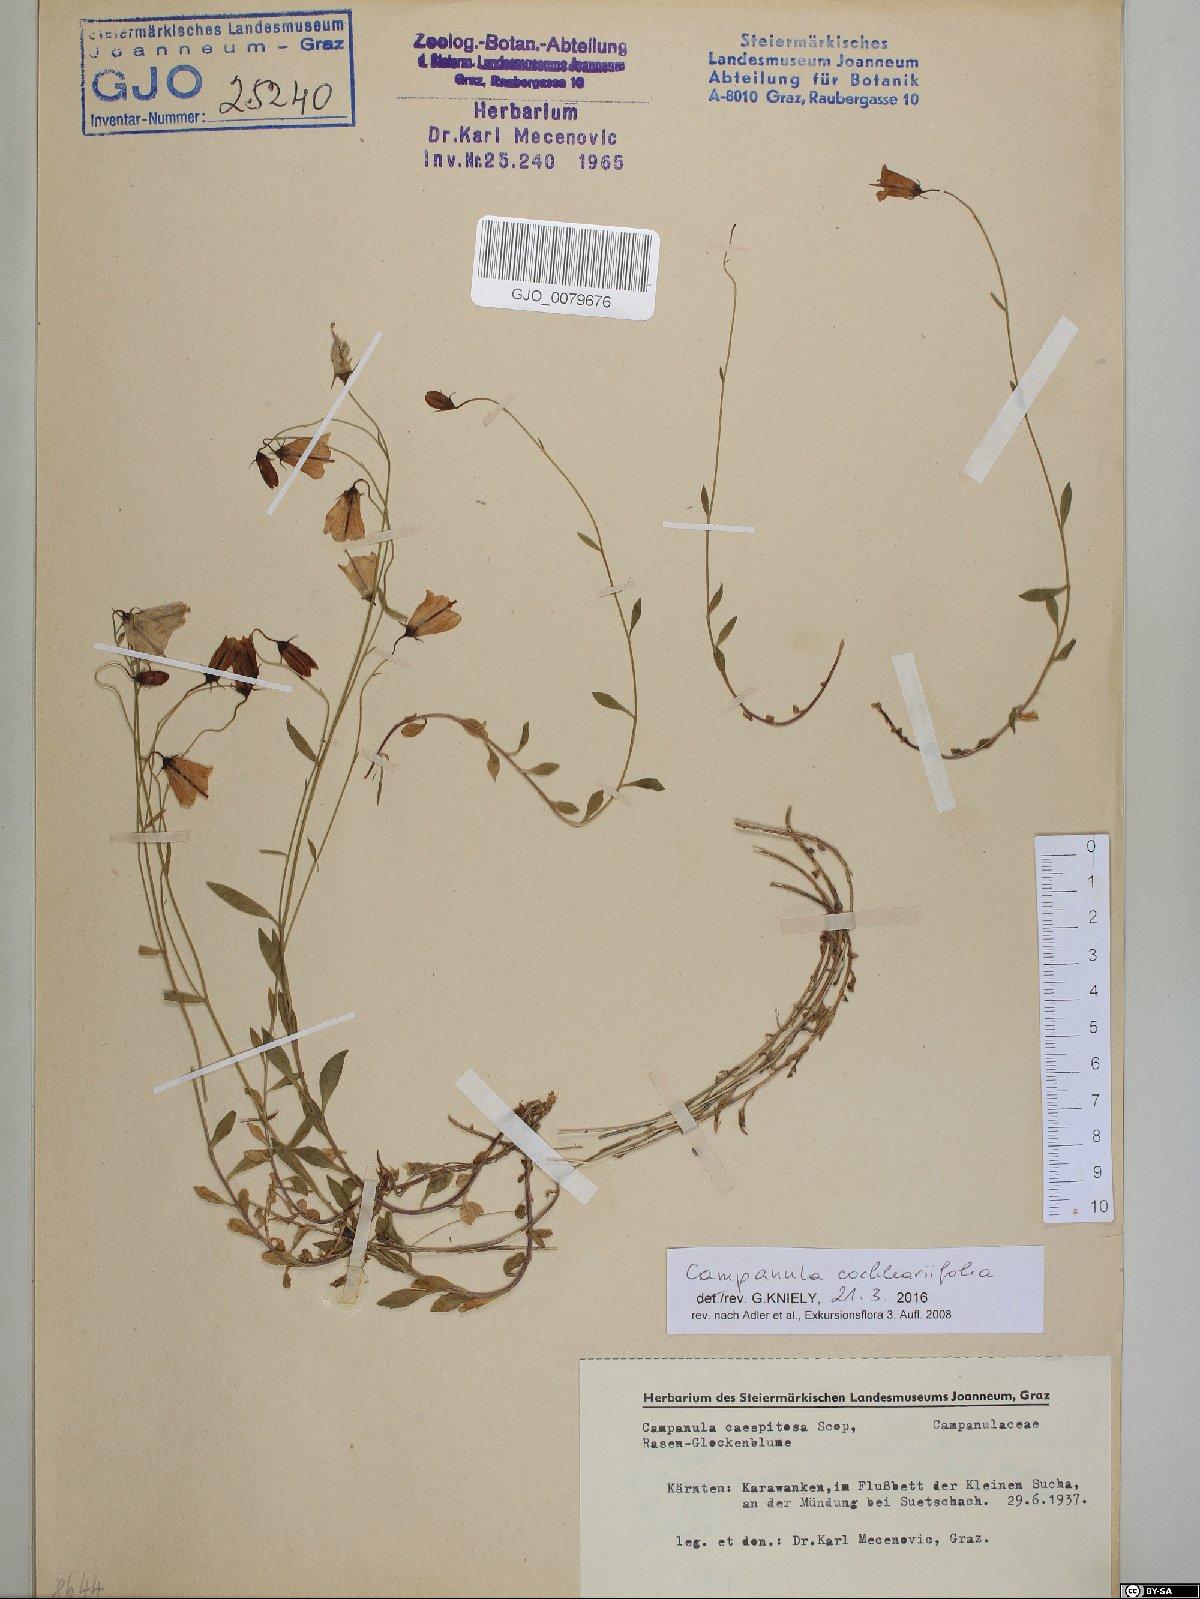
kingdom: Plantae
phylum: Tracheophyta
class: Magnoliopsida
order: Asterales
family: Campanulaceae
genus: Campanula
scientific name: Campanula cochleariifolia
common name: Fairies'-thimbles
